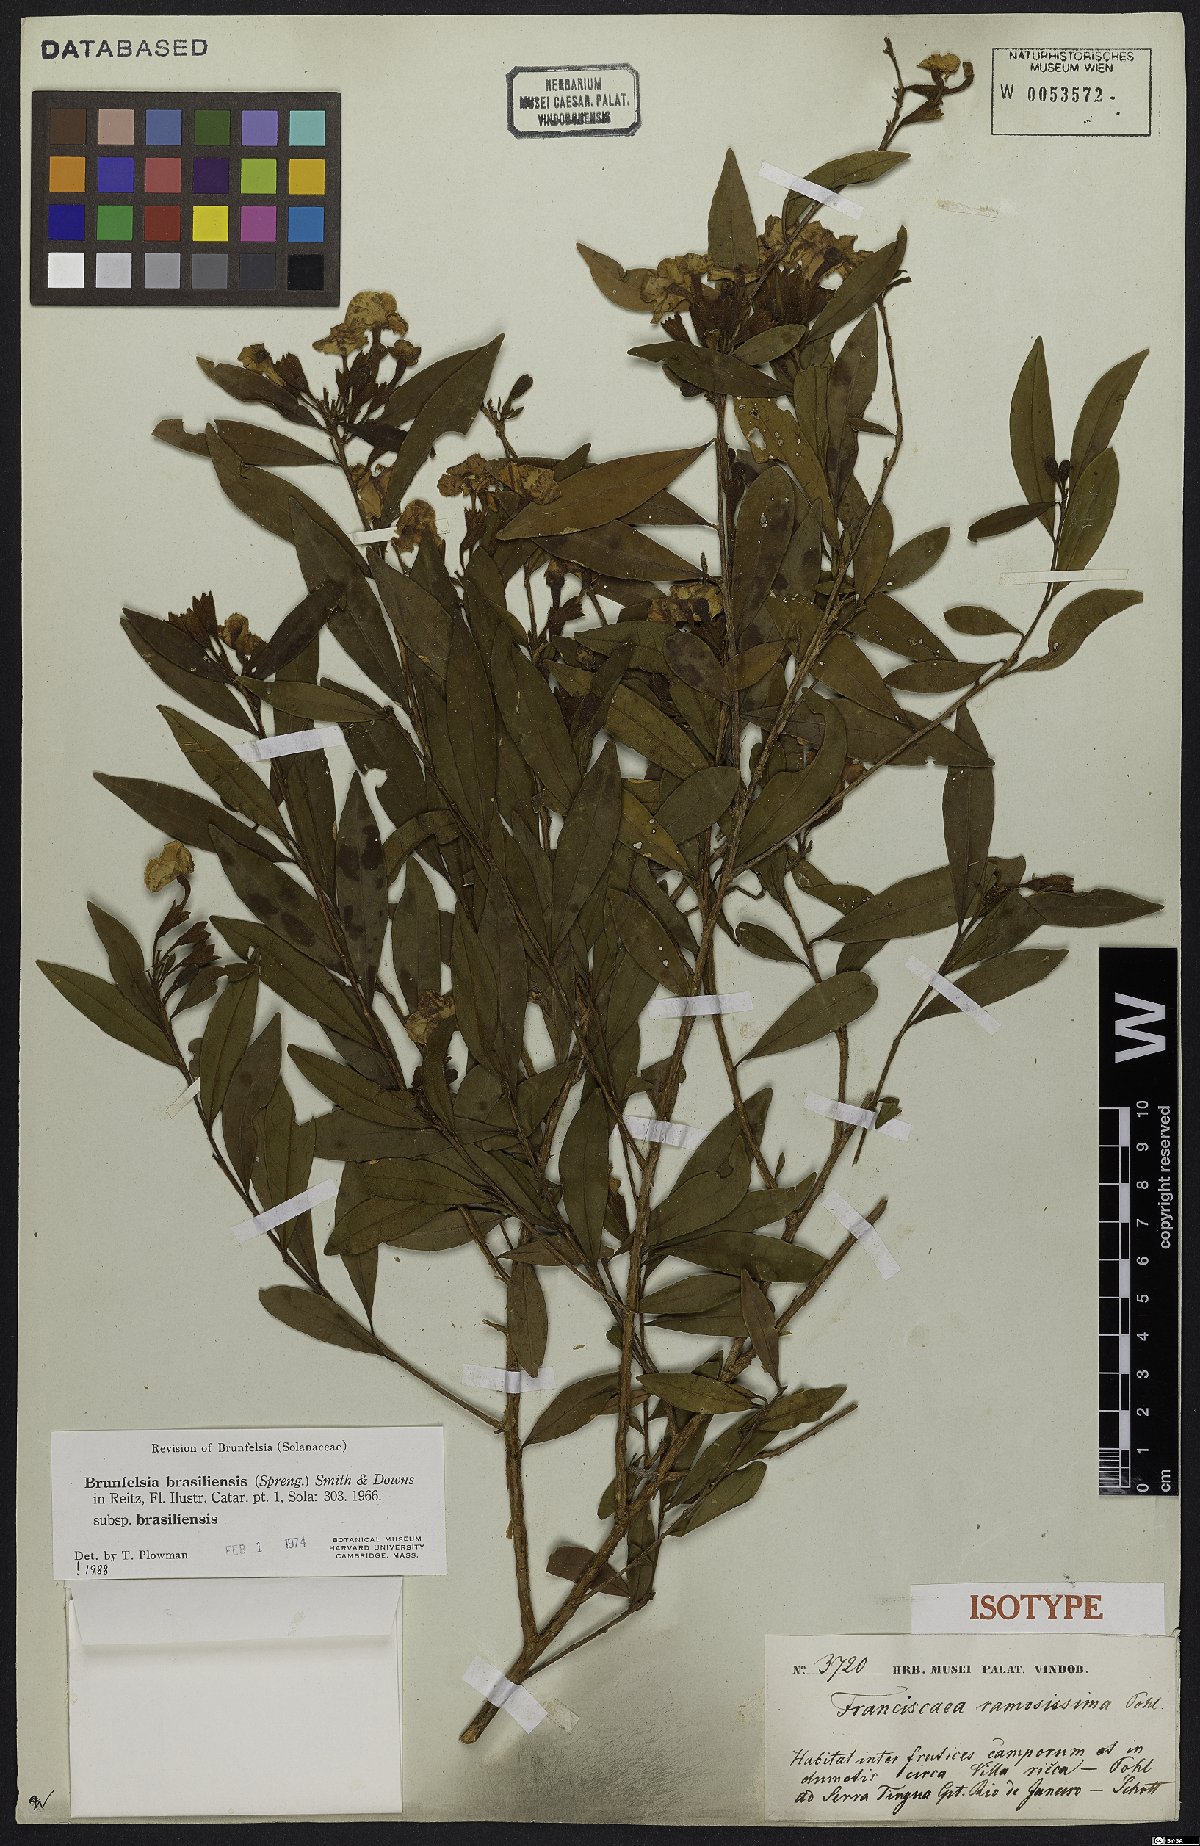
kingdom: Plantae
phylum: Tracheophyta
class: Magnoliopsida
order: Solanales
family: Solanaceae
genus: Brunfelsia
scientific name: Brunfelsia brasiliensis
